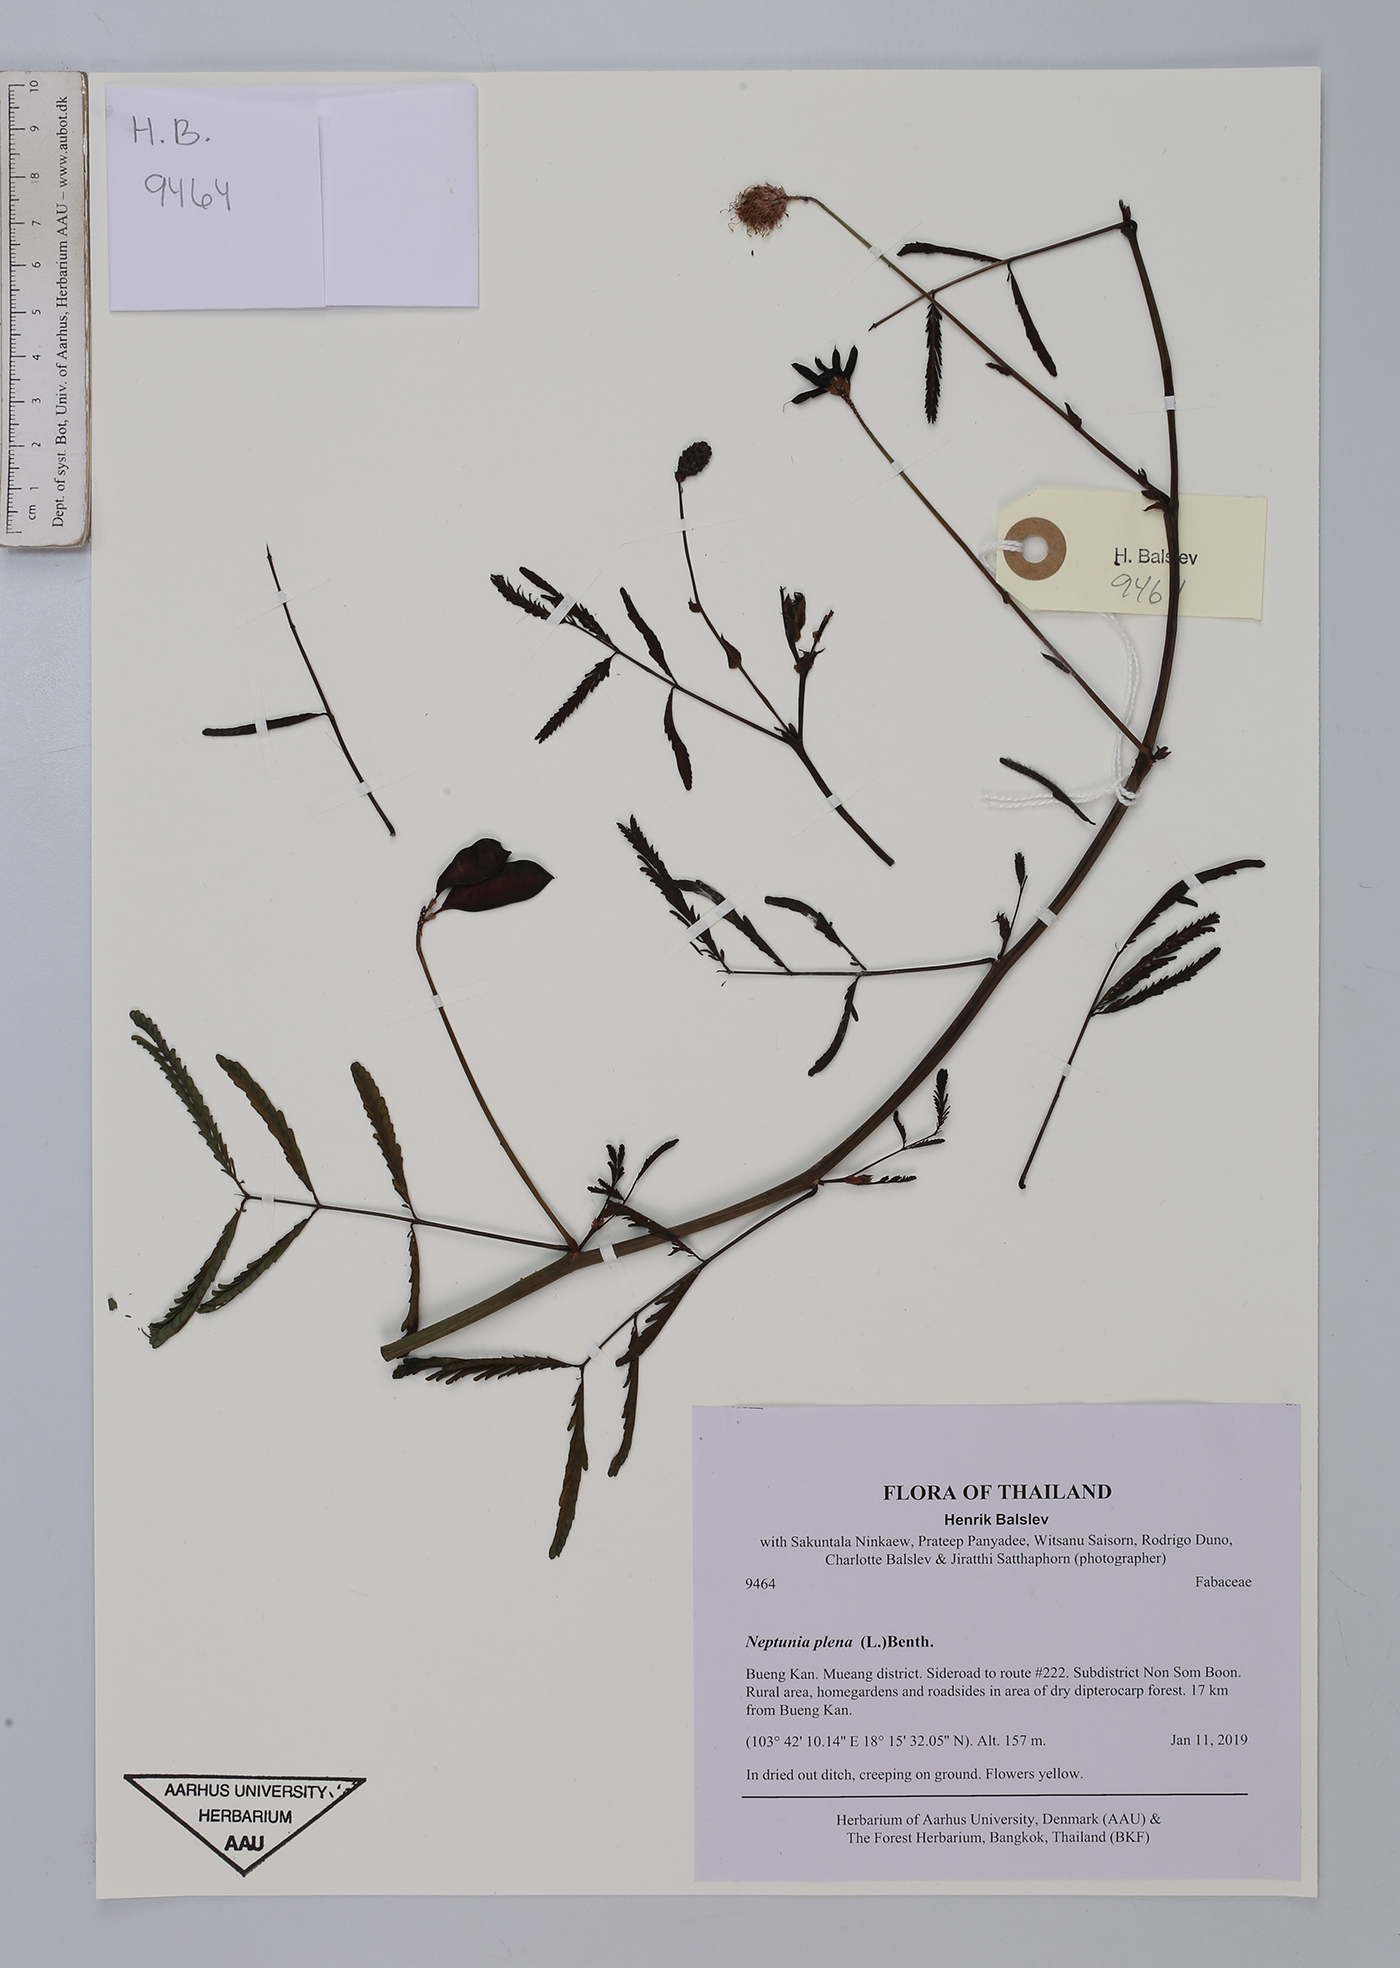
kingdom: Plantae
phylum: Tracheophyta
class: Magnoliopsida
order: Fabales
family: Fabaceae
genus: Neptunia
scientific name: Neptunia plena
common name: Dead and awake
